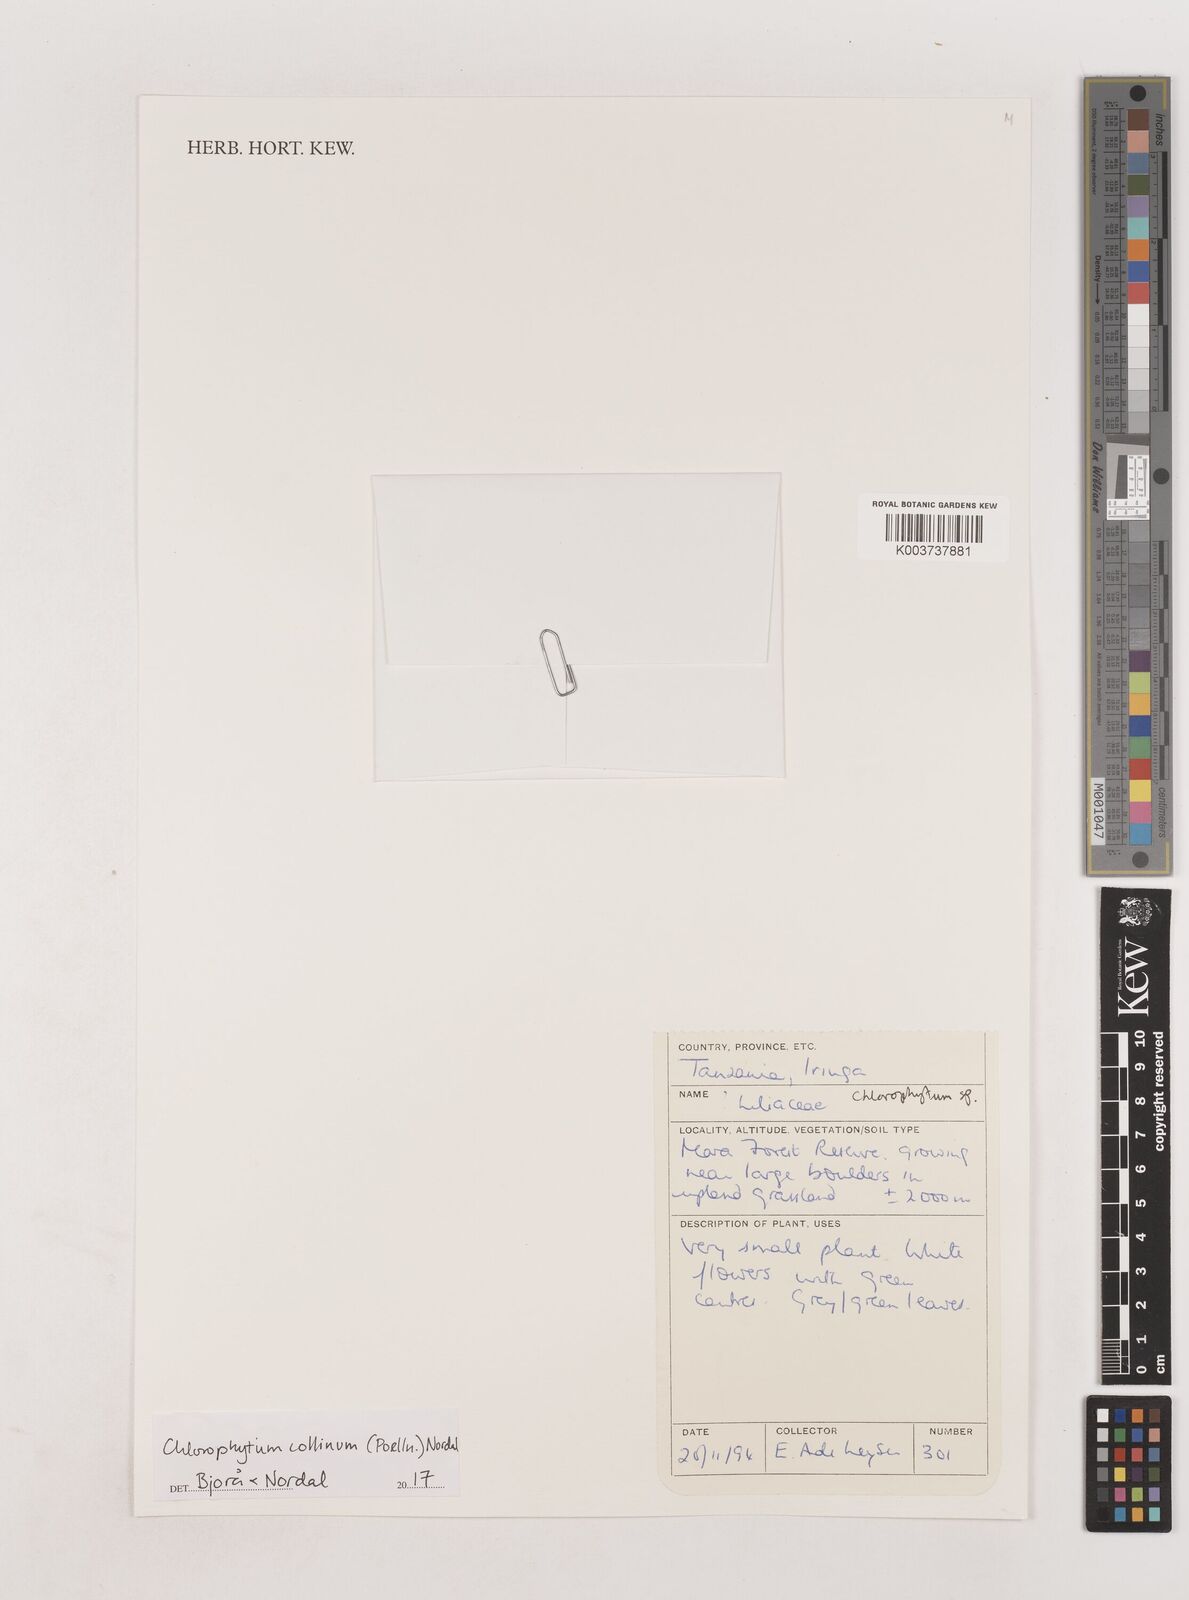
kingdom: Plantae
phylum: Tracheophyta
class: Liliopsida
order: Asparagales
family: Asparagaceae
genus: Chlorophytum
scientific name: Chlorophytum collinum
